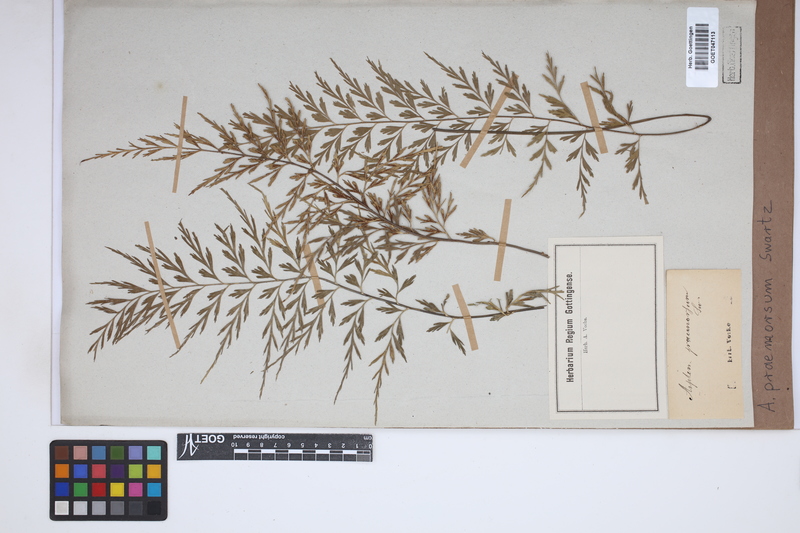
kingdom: Plantae
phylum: Tracheophyta
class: Polypodiopsida
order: Polypodiales
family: Aspleniaceae
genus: Asplenium
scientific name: Asplenium praemorsum
